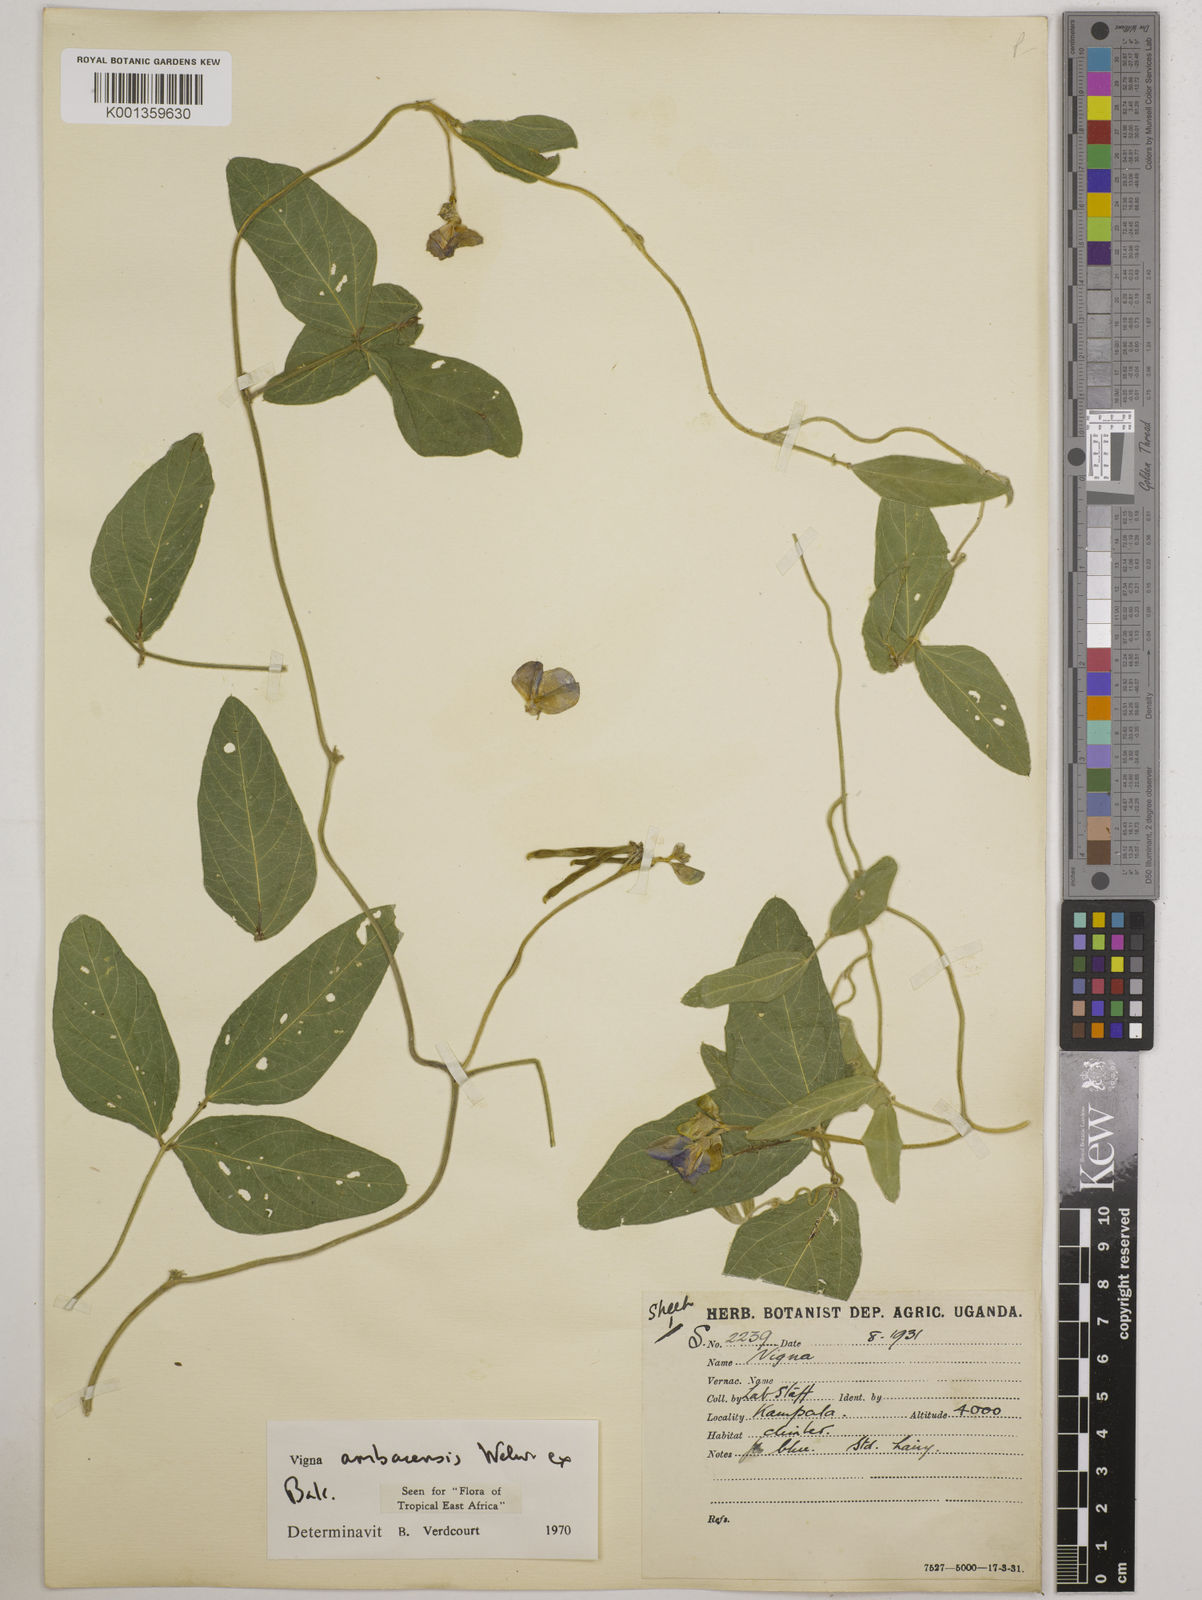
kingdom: Plantae
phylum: Tracheophyta
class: Magnoliopsida
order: Fabales
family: Fabaceae
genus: Vigna
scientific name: Vigna ambacensis
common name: Tsarkiyan zomo
